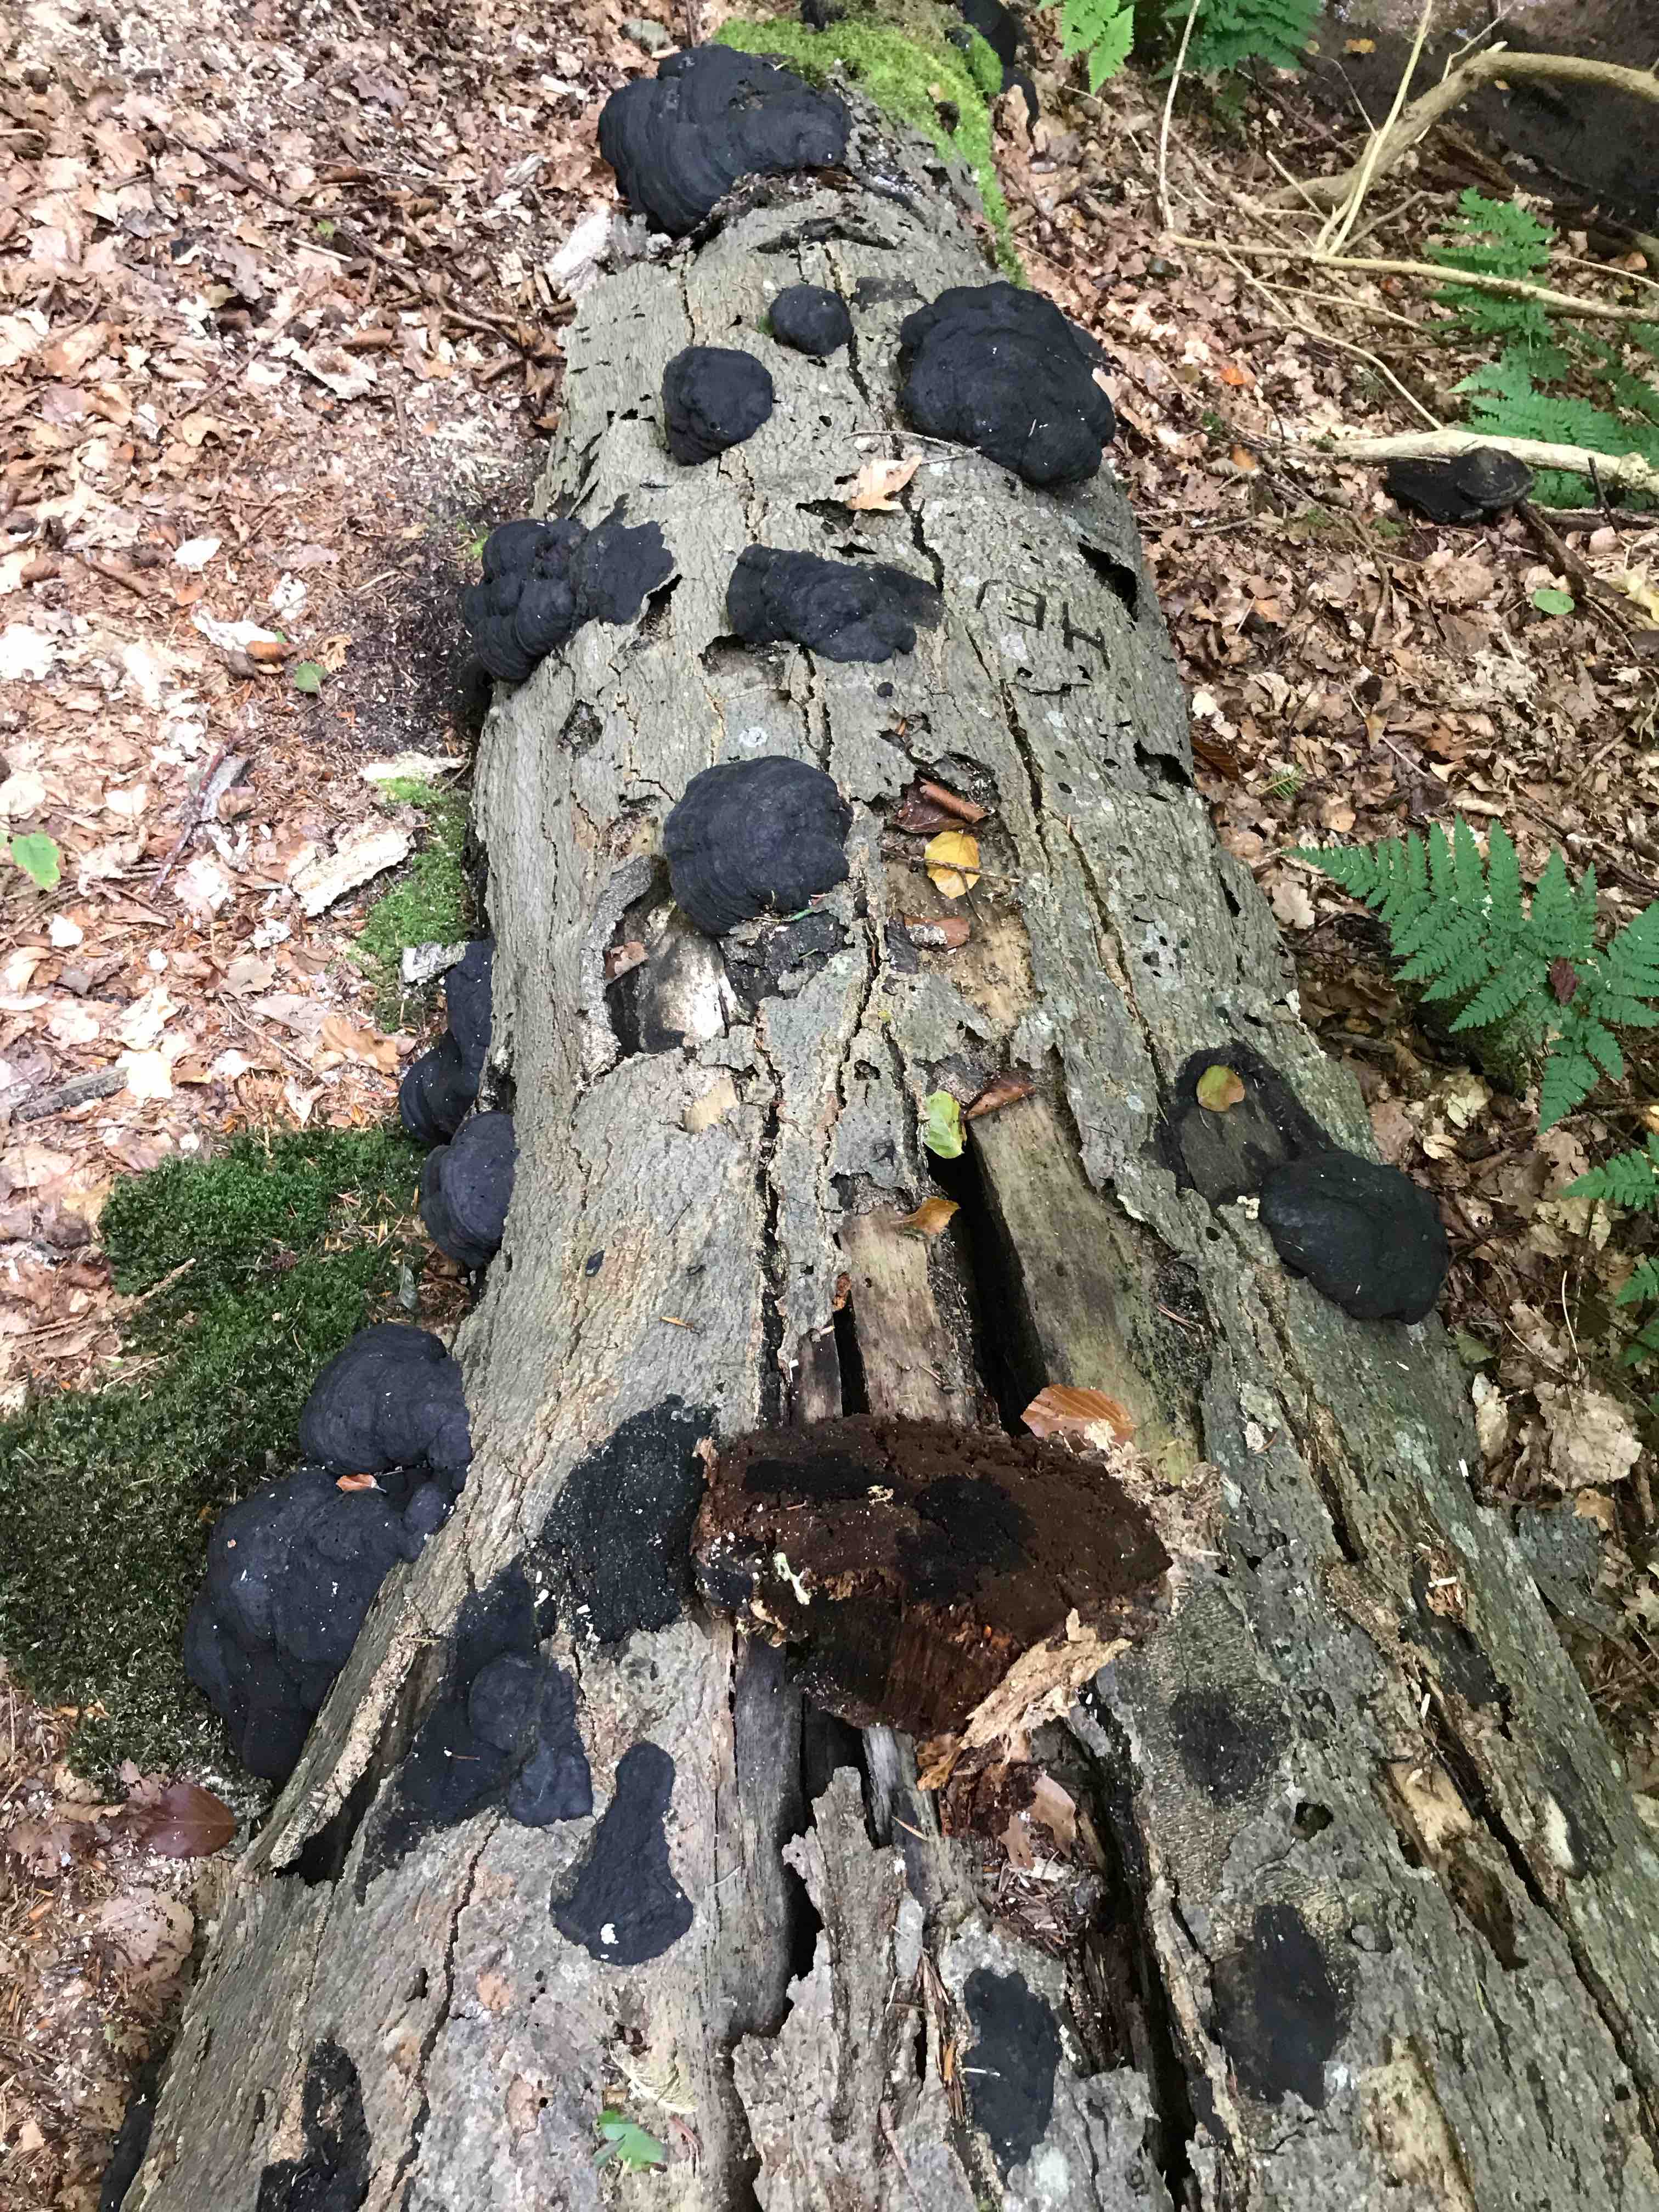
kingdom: Fungi
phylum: Basidiomycota
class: Agaricomycetes
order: Polyporales
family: Polyporaceae
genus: Fomes
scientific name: Fomes fomentarius
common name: tøndersvamp
